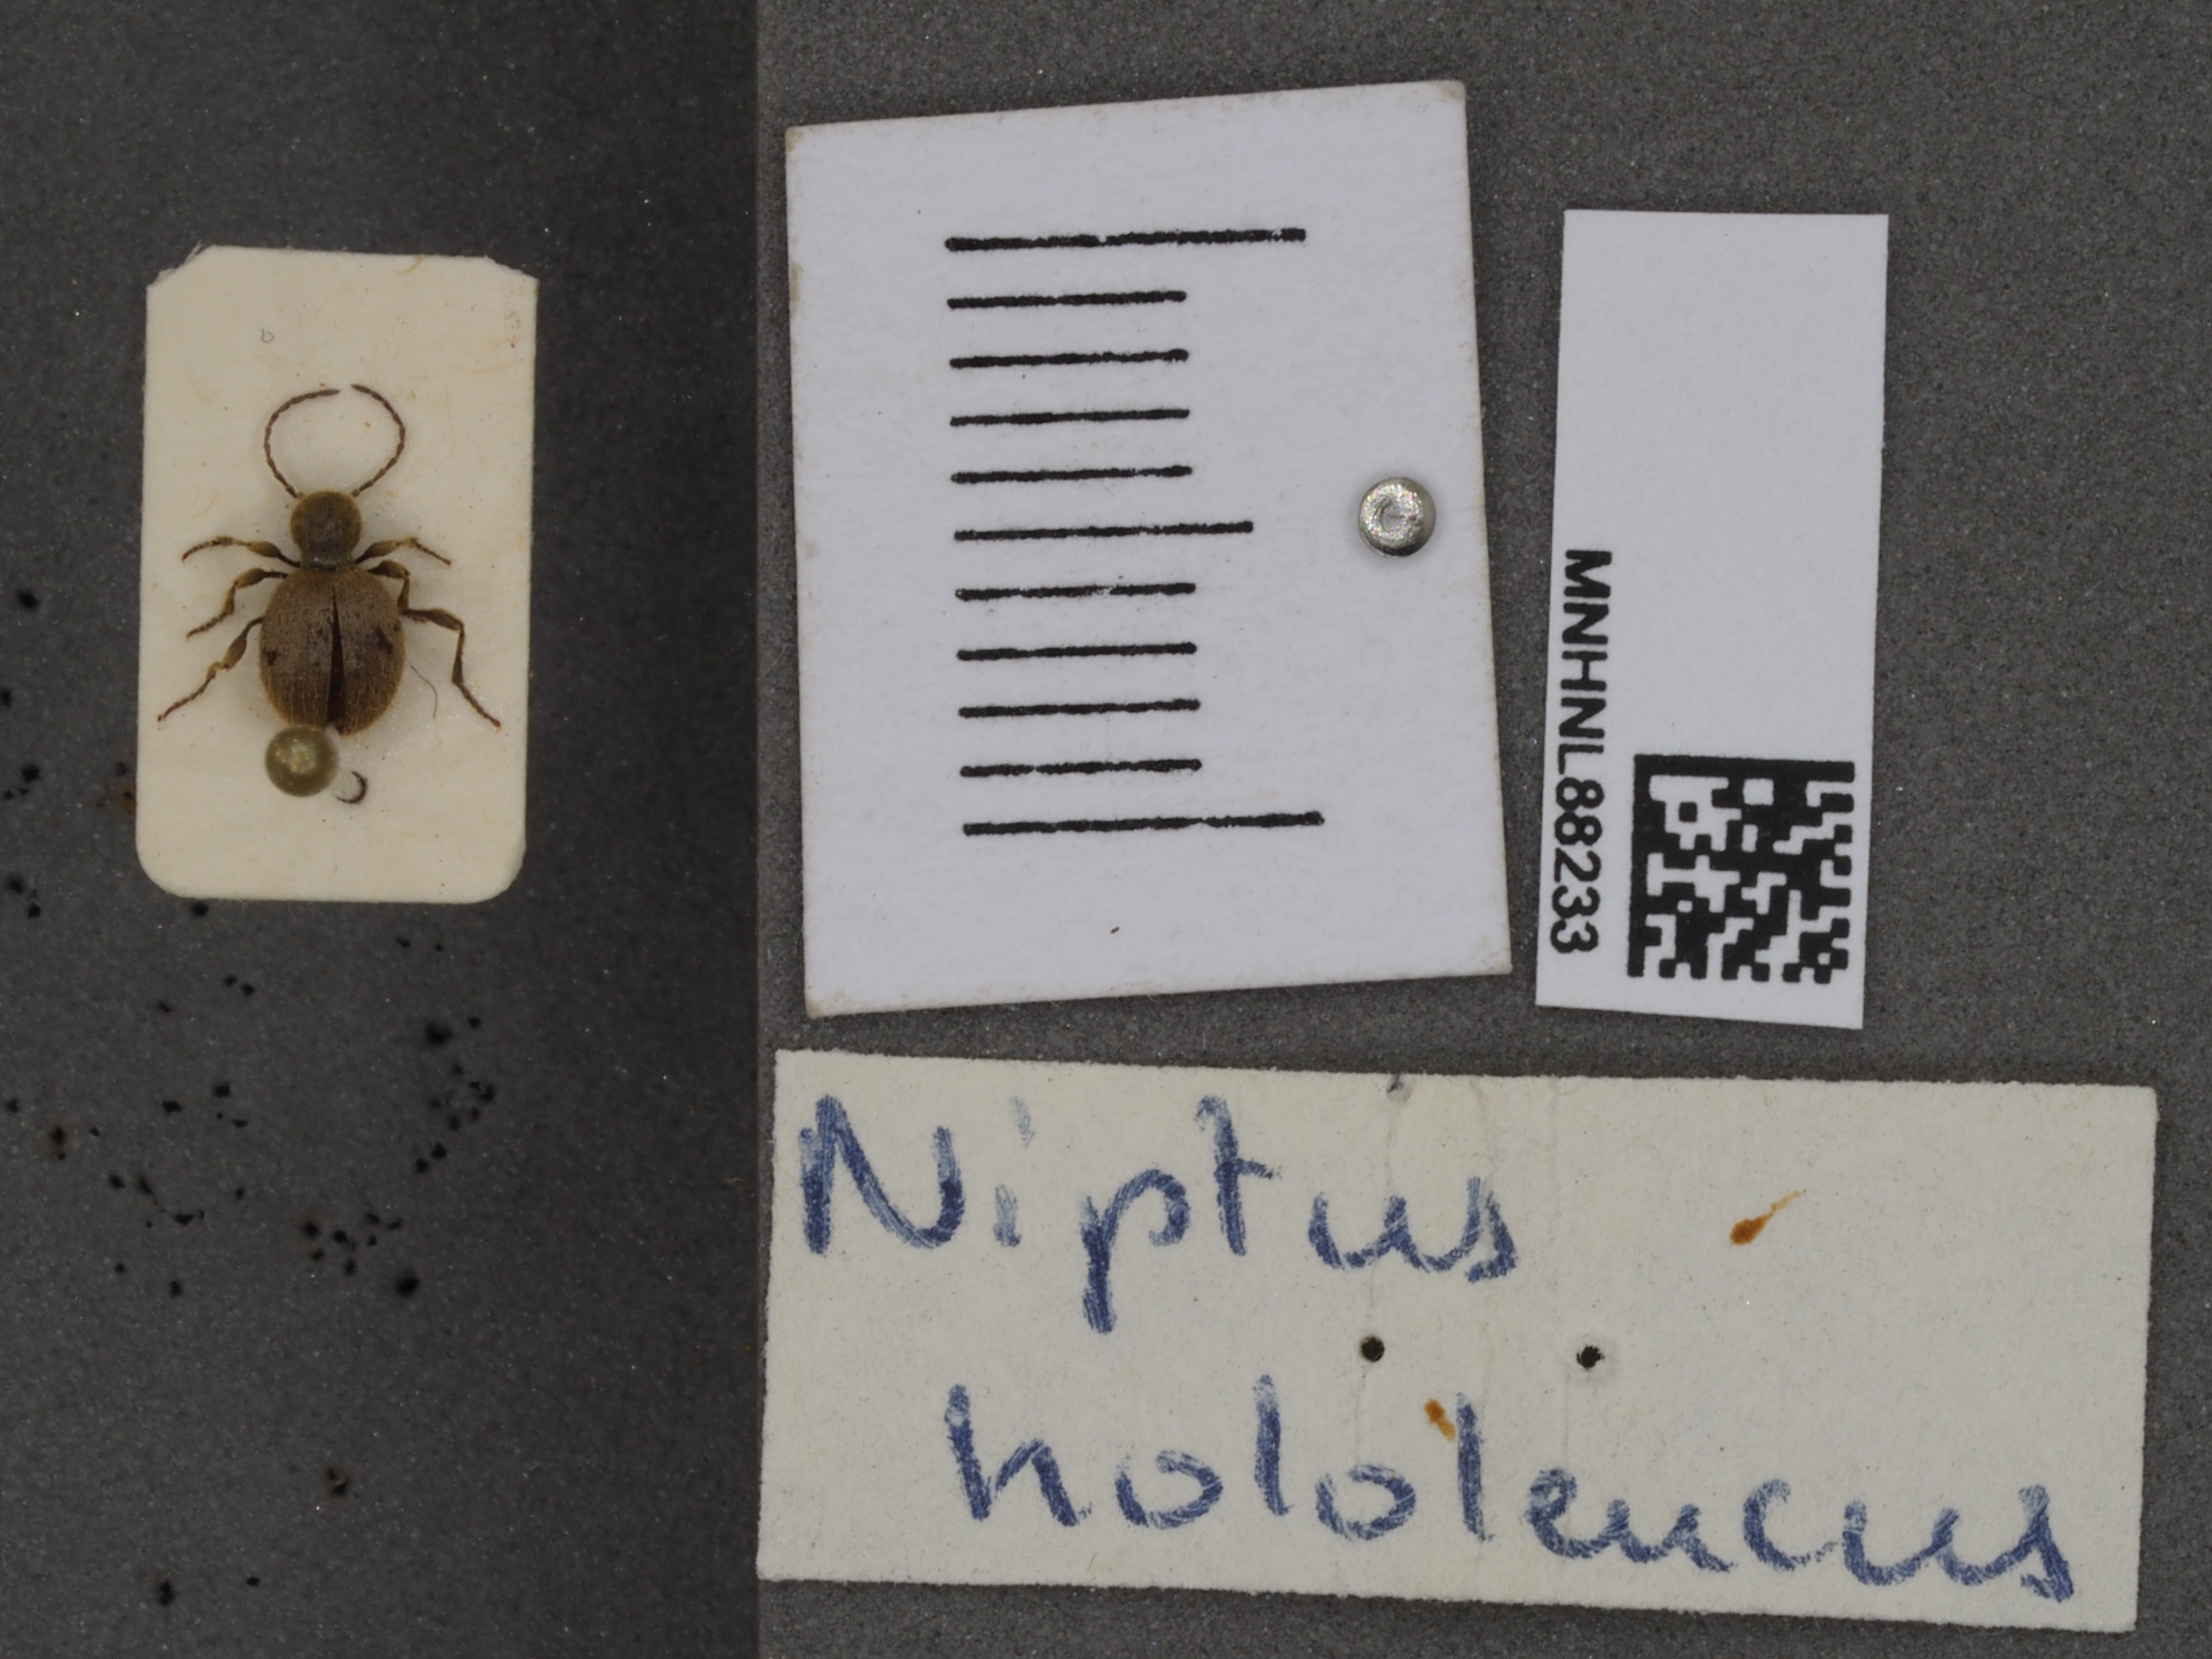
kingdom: Animalia
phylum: Arthropoda
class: Insecta
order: Coleoptera
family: Ptinidae
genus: Niptus
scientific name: Niptus hololeucus
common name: Golden spider beetle
